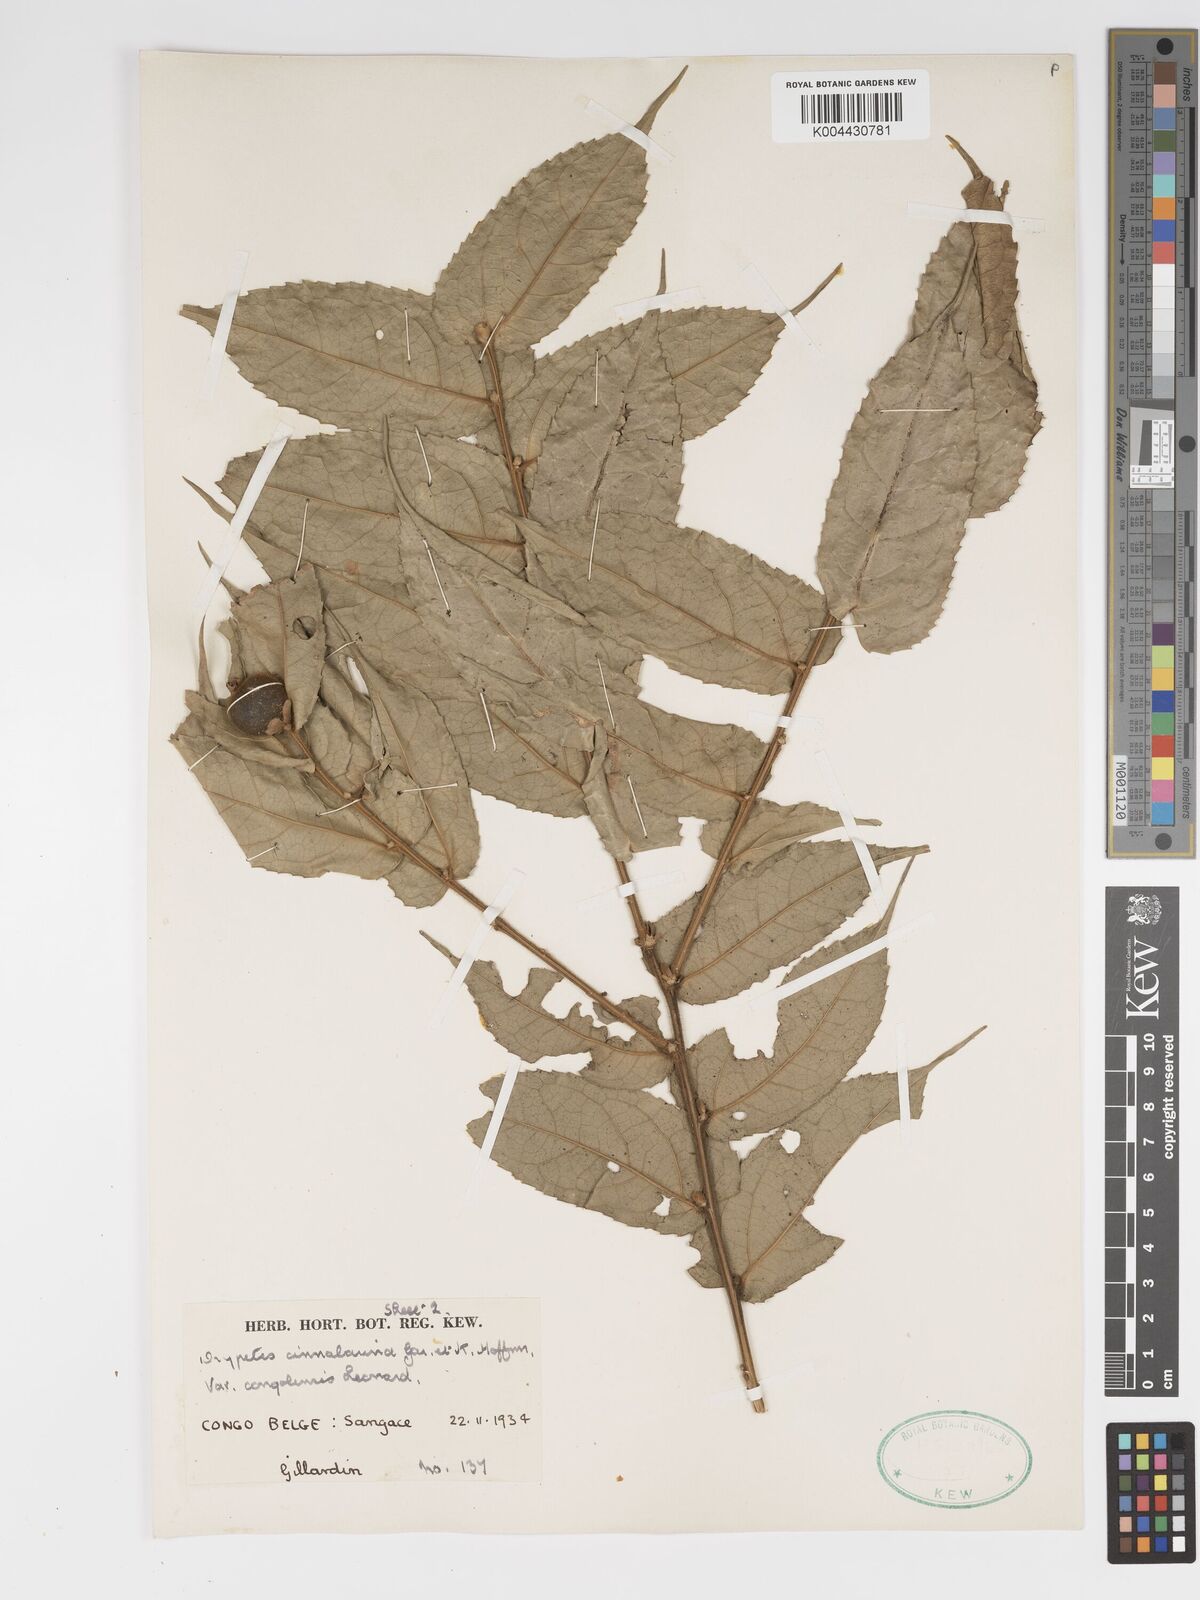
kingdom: Plantae
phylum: Tracheophyta
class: Magnoliopsida
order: Malpighiales
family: Putranjivaceae
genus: Drypetes
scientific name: Drypetes cinnabarina
